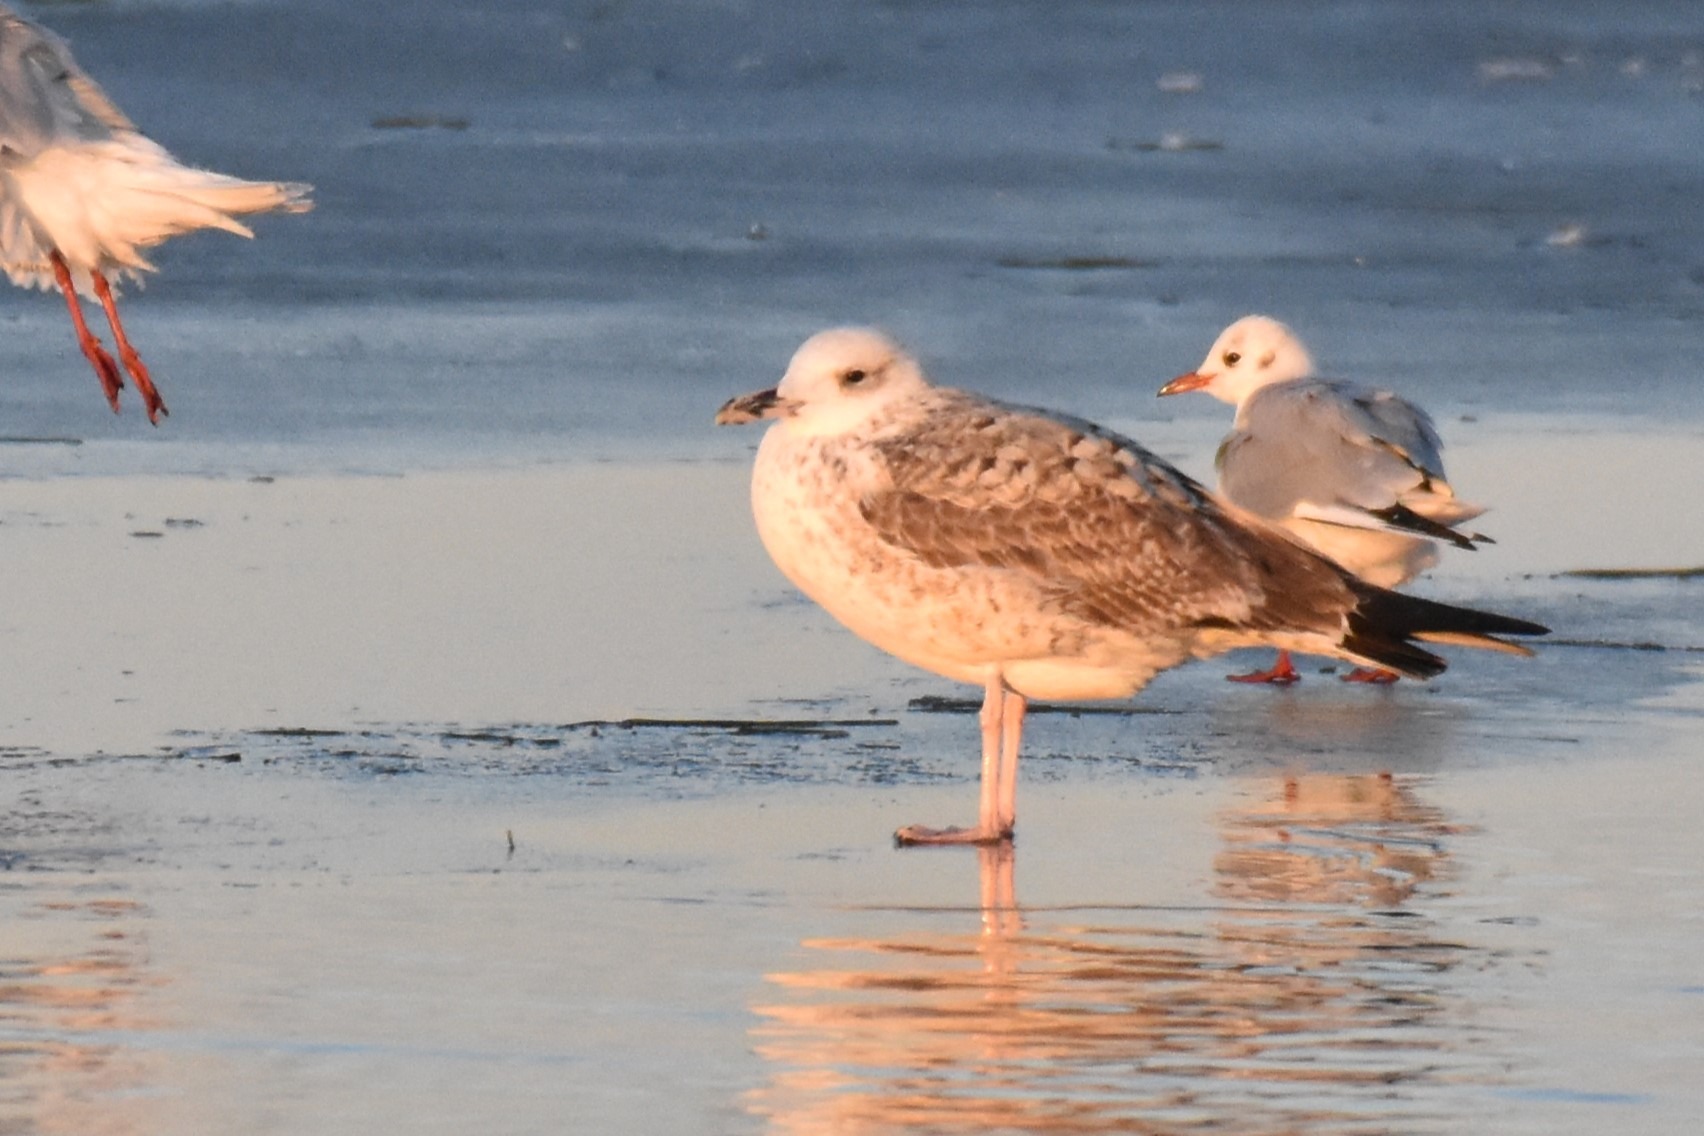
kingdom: Animalia
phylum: Chordata
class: Aves
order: Charadriiformes
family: Laridae
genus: Larus
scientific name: Larus cachinnans
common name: Kaspisk måge
